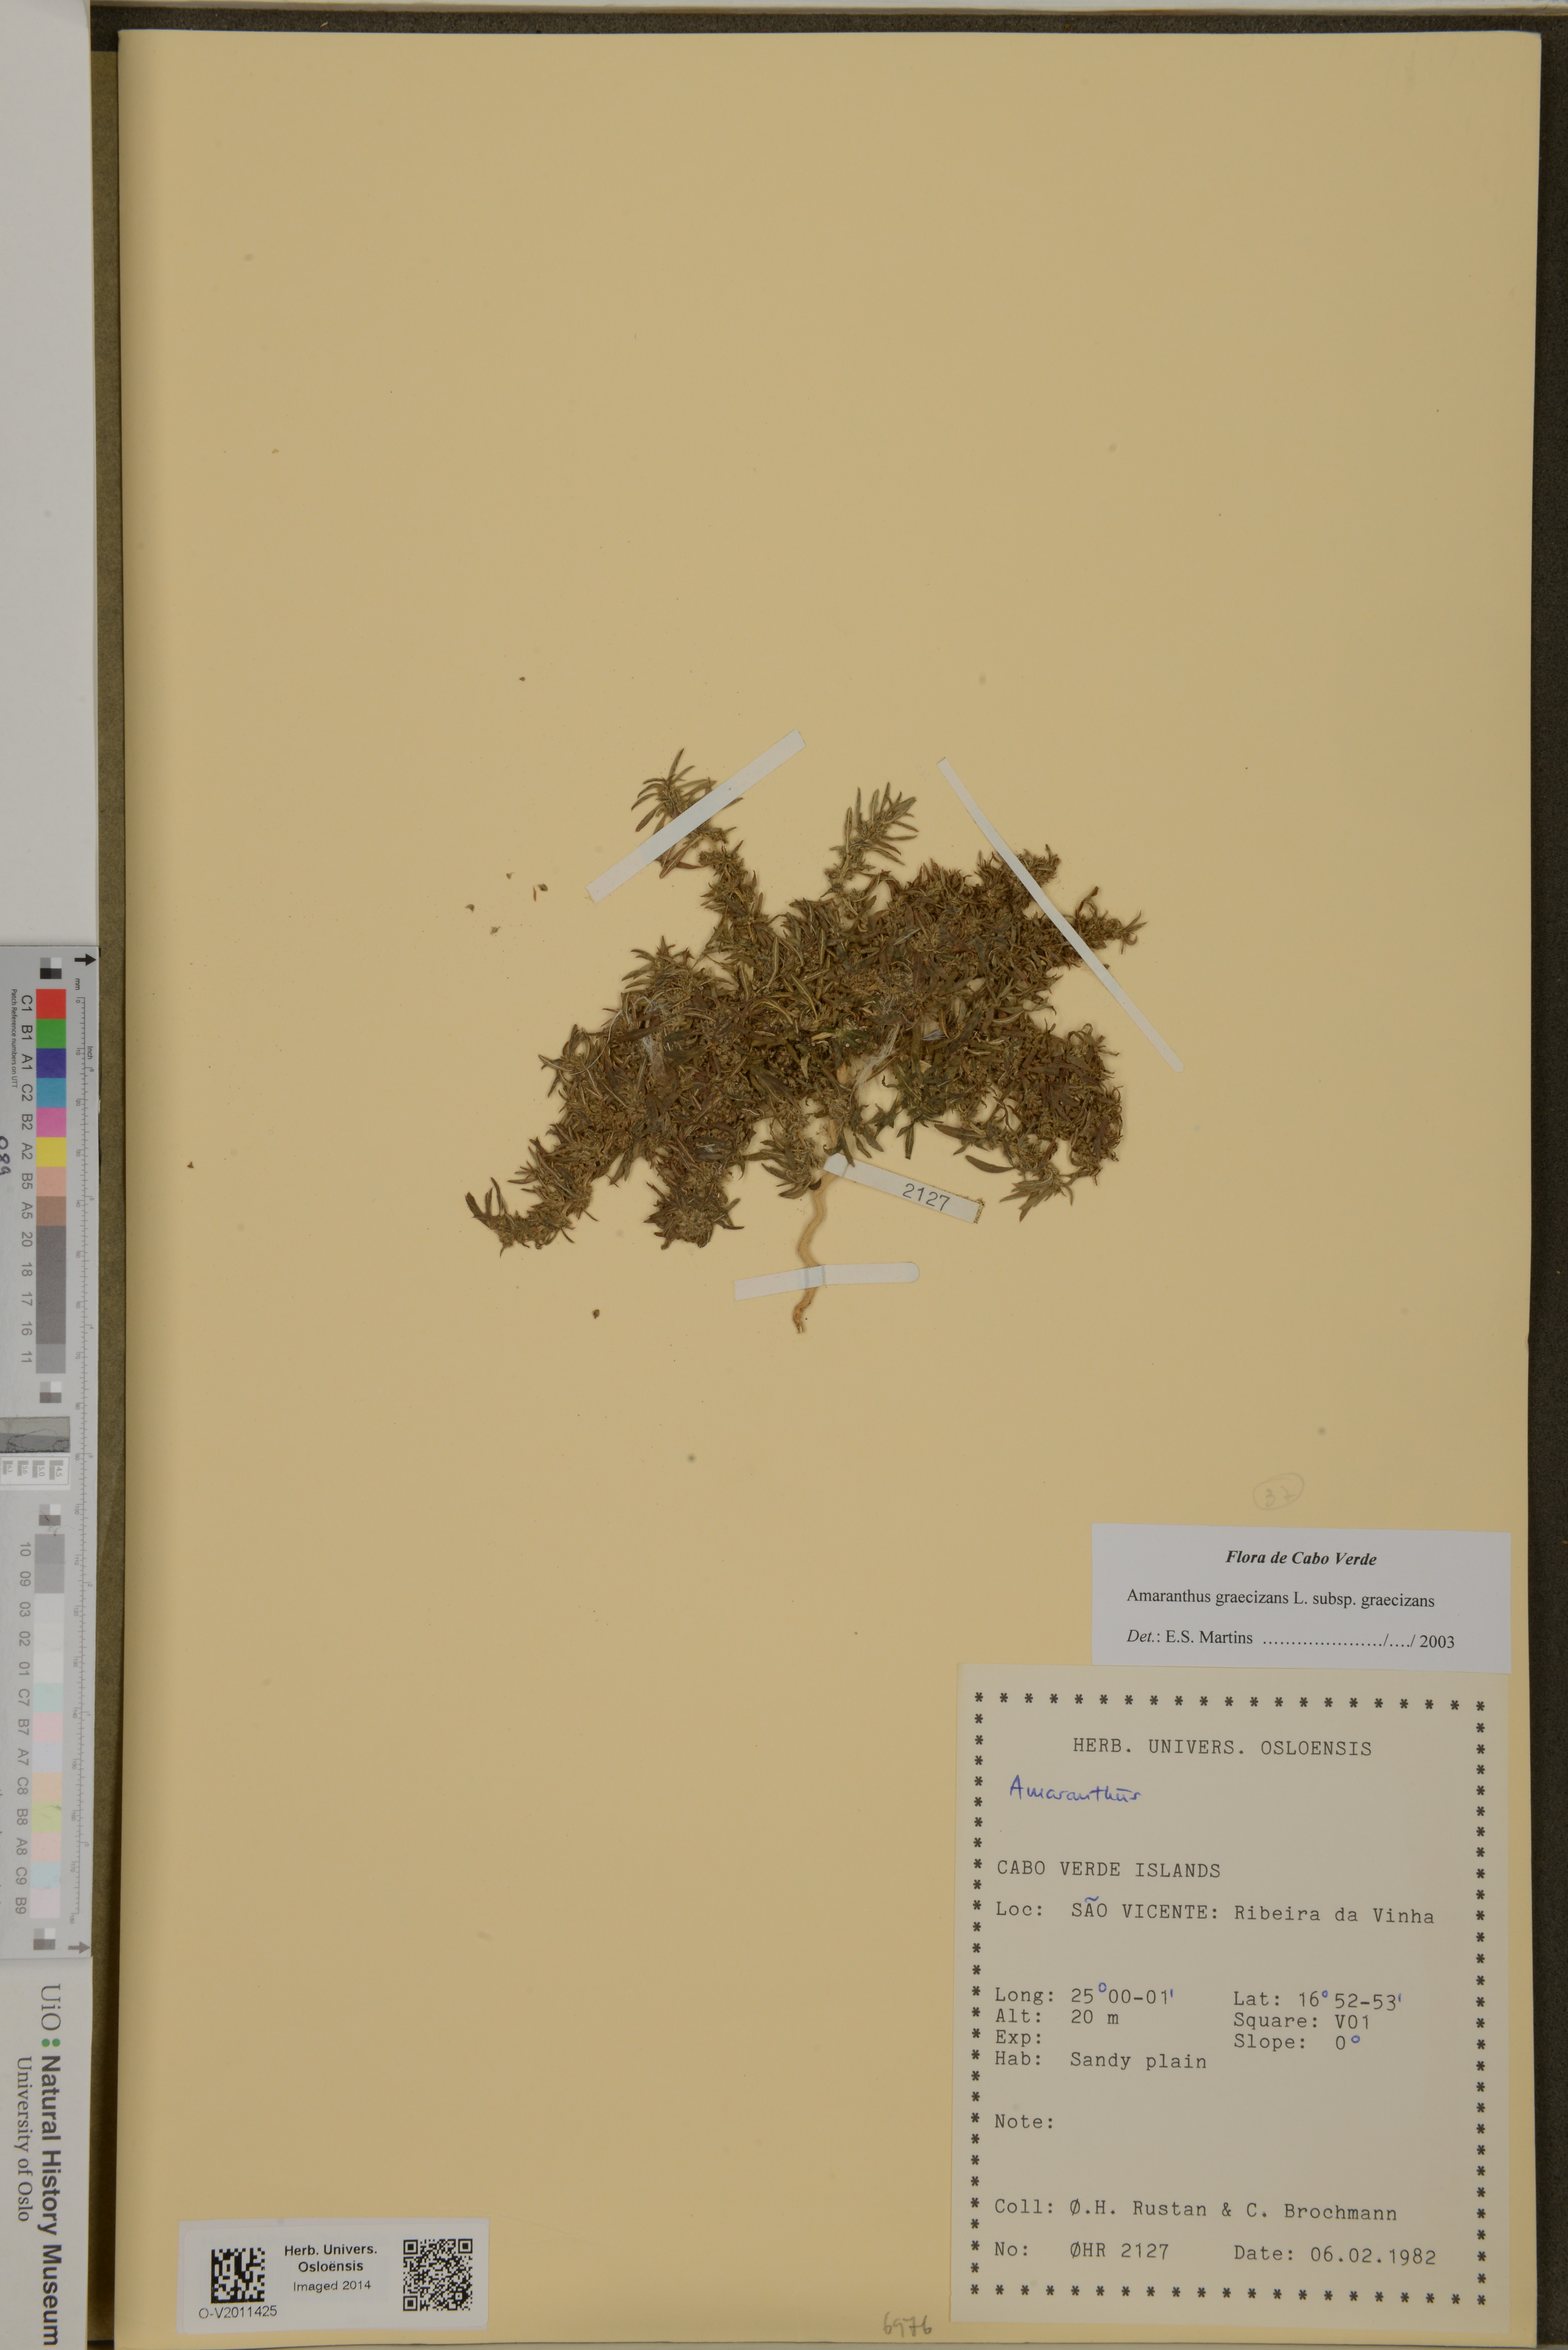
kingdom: Plantae
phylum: Tracheophyta
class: Magnoliopsida
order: Caryophyllales
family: Amaranthaceae
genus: Amaranthus
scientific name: Amaranthus graecizans
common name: Mediterranean amaranth
